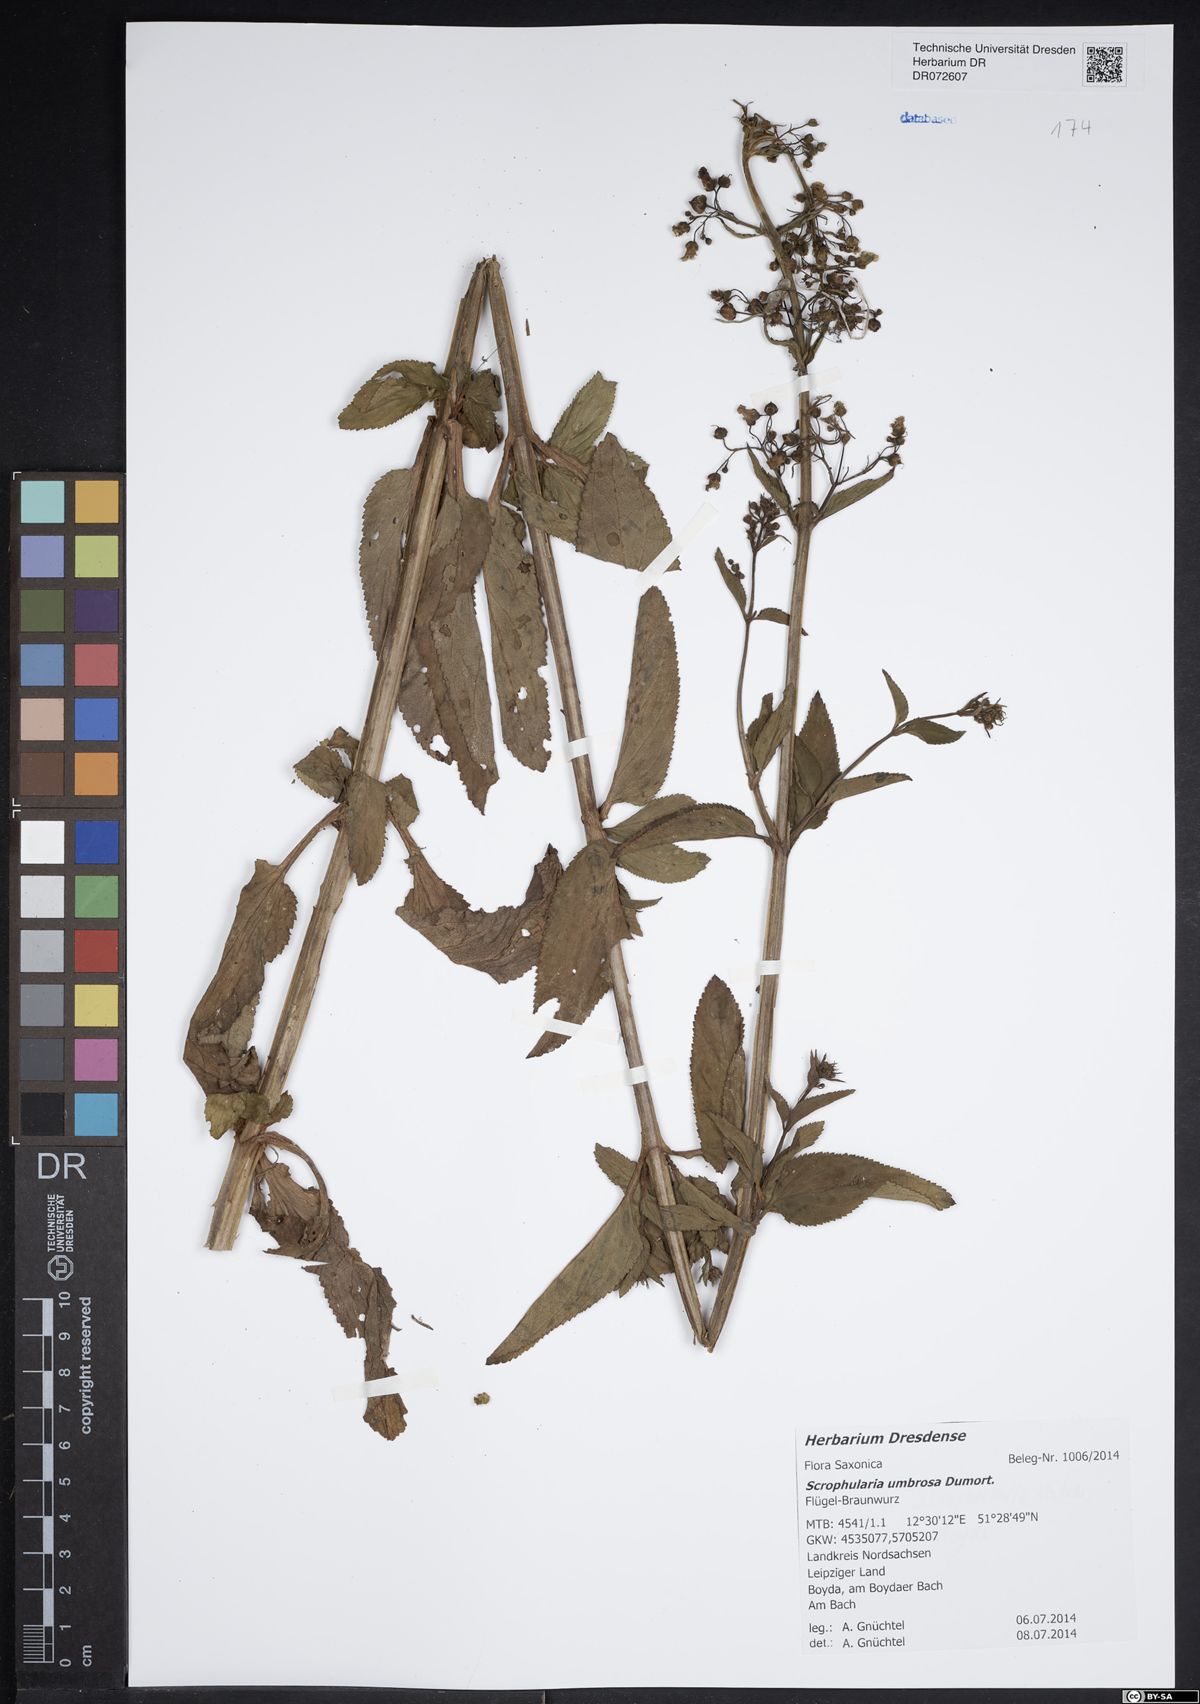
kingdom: Plantae
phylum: Tracheophyta
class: Magnoliopsida
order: Lamiales
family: Scrophulariaceae
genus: Scrophularia
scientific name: Scrophularia umbrosa
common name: Green figwort
